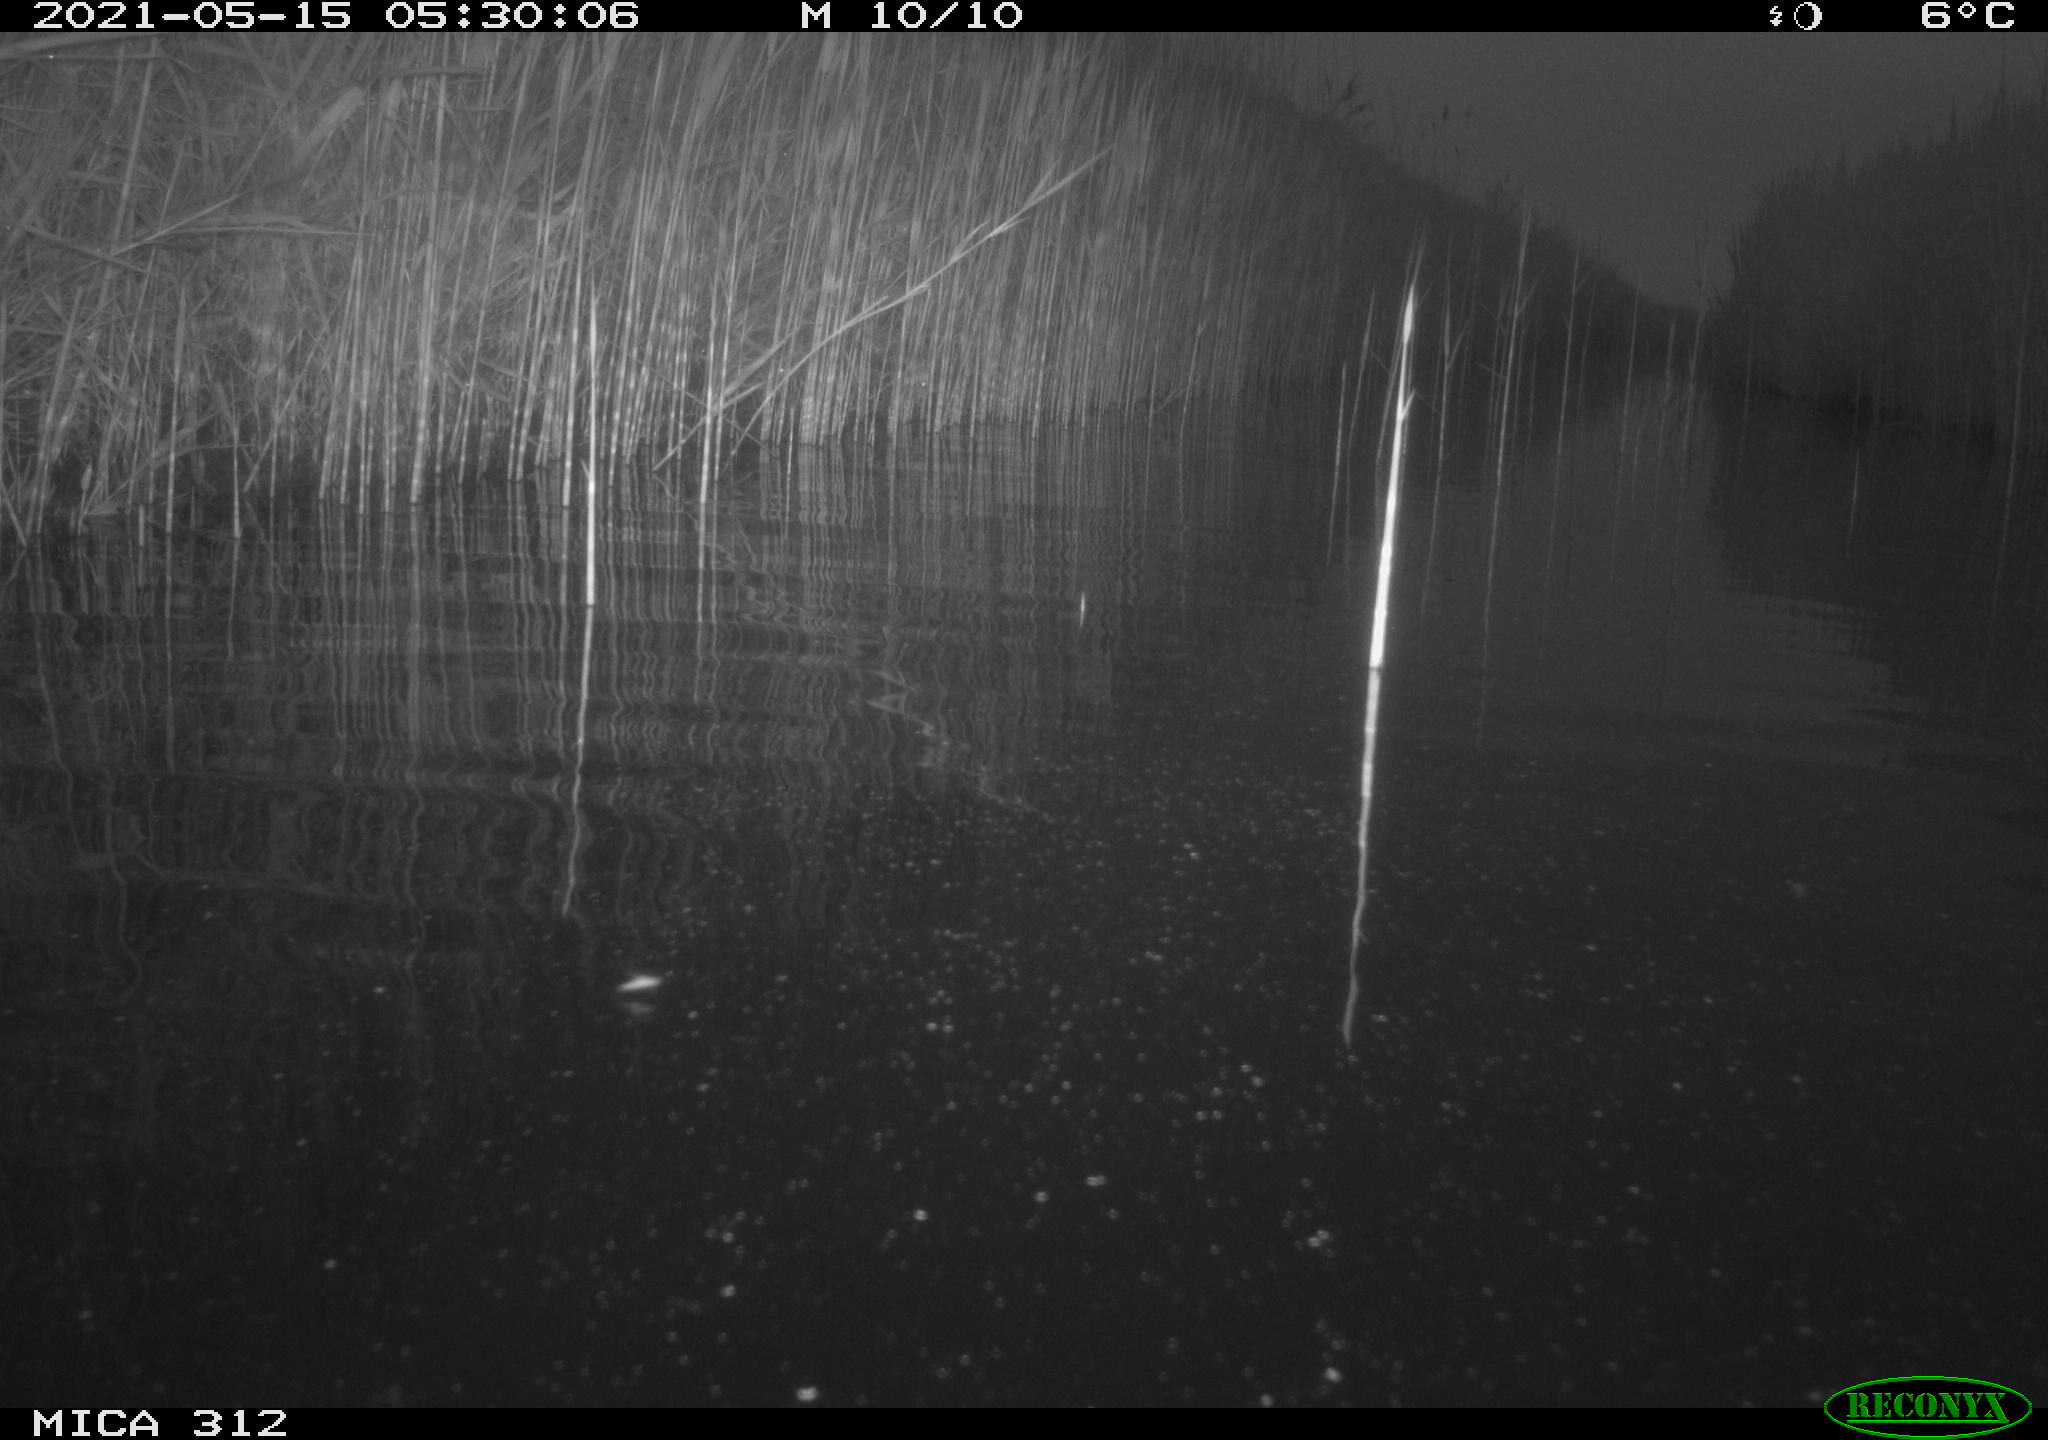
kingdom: Animalia
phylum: Chordata
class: Mammalia
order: Rodentia
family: Cricetidae
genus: Ondatra
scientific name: Ondatra zibethicus
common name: Muskrat
